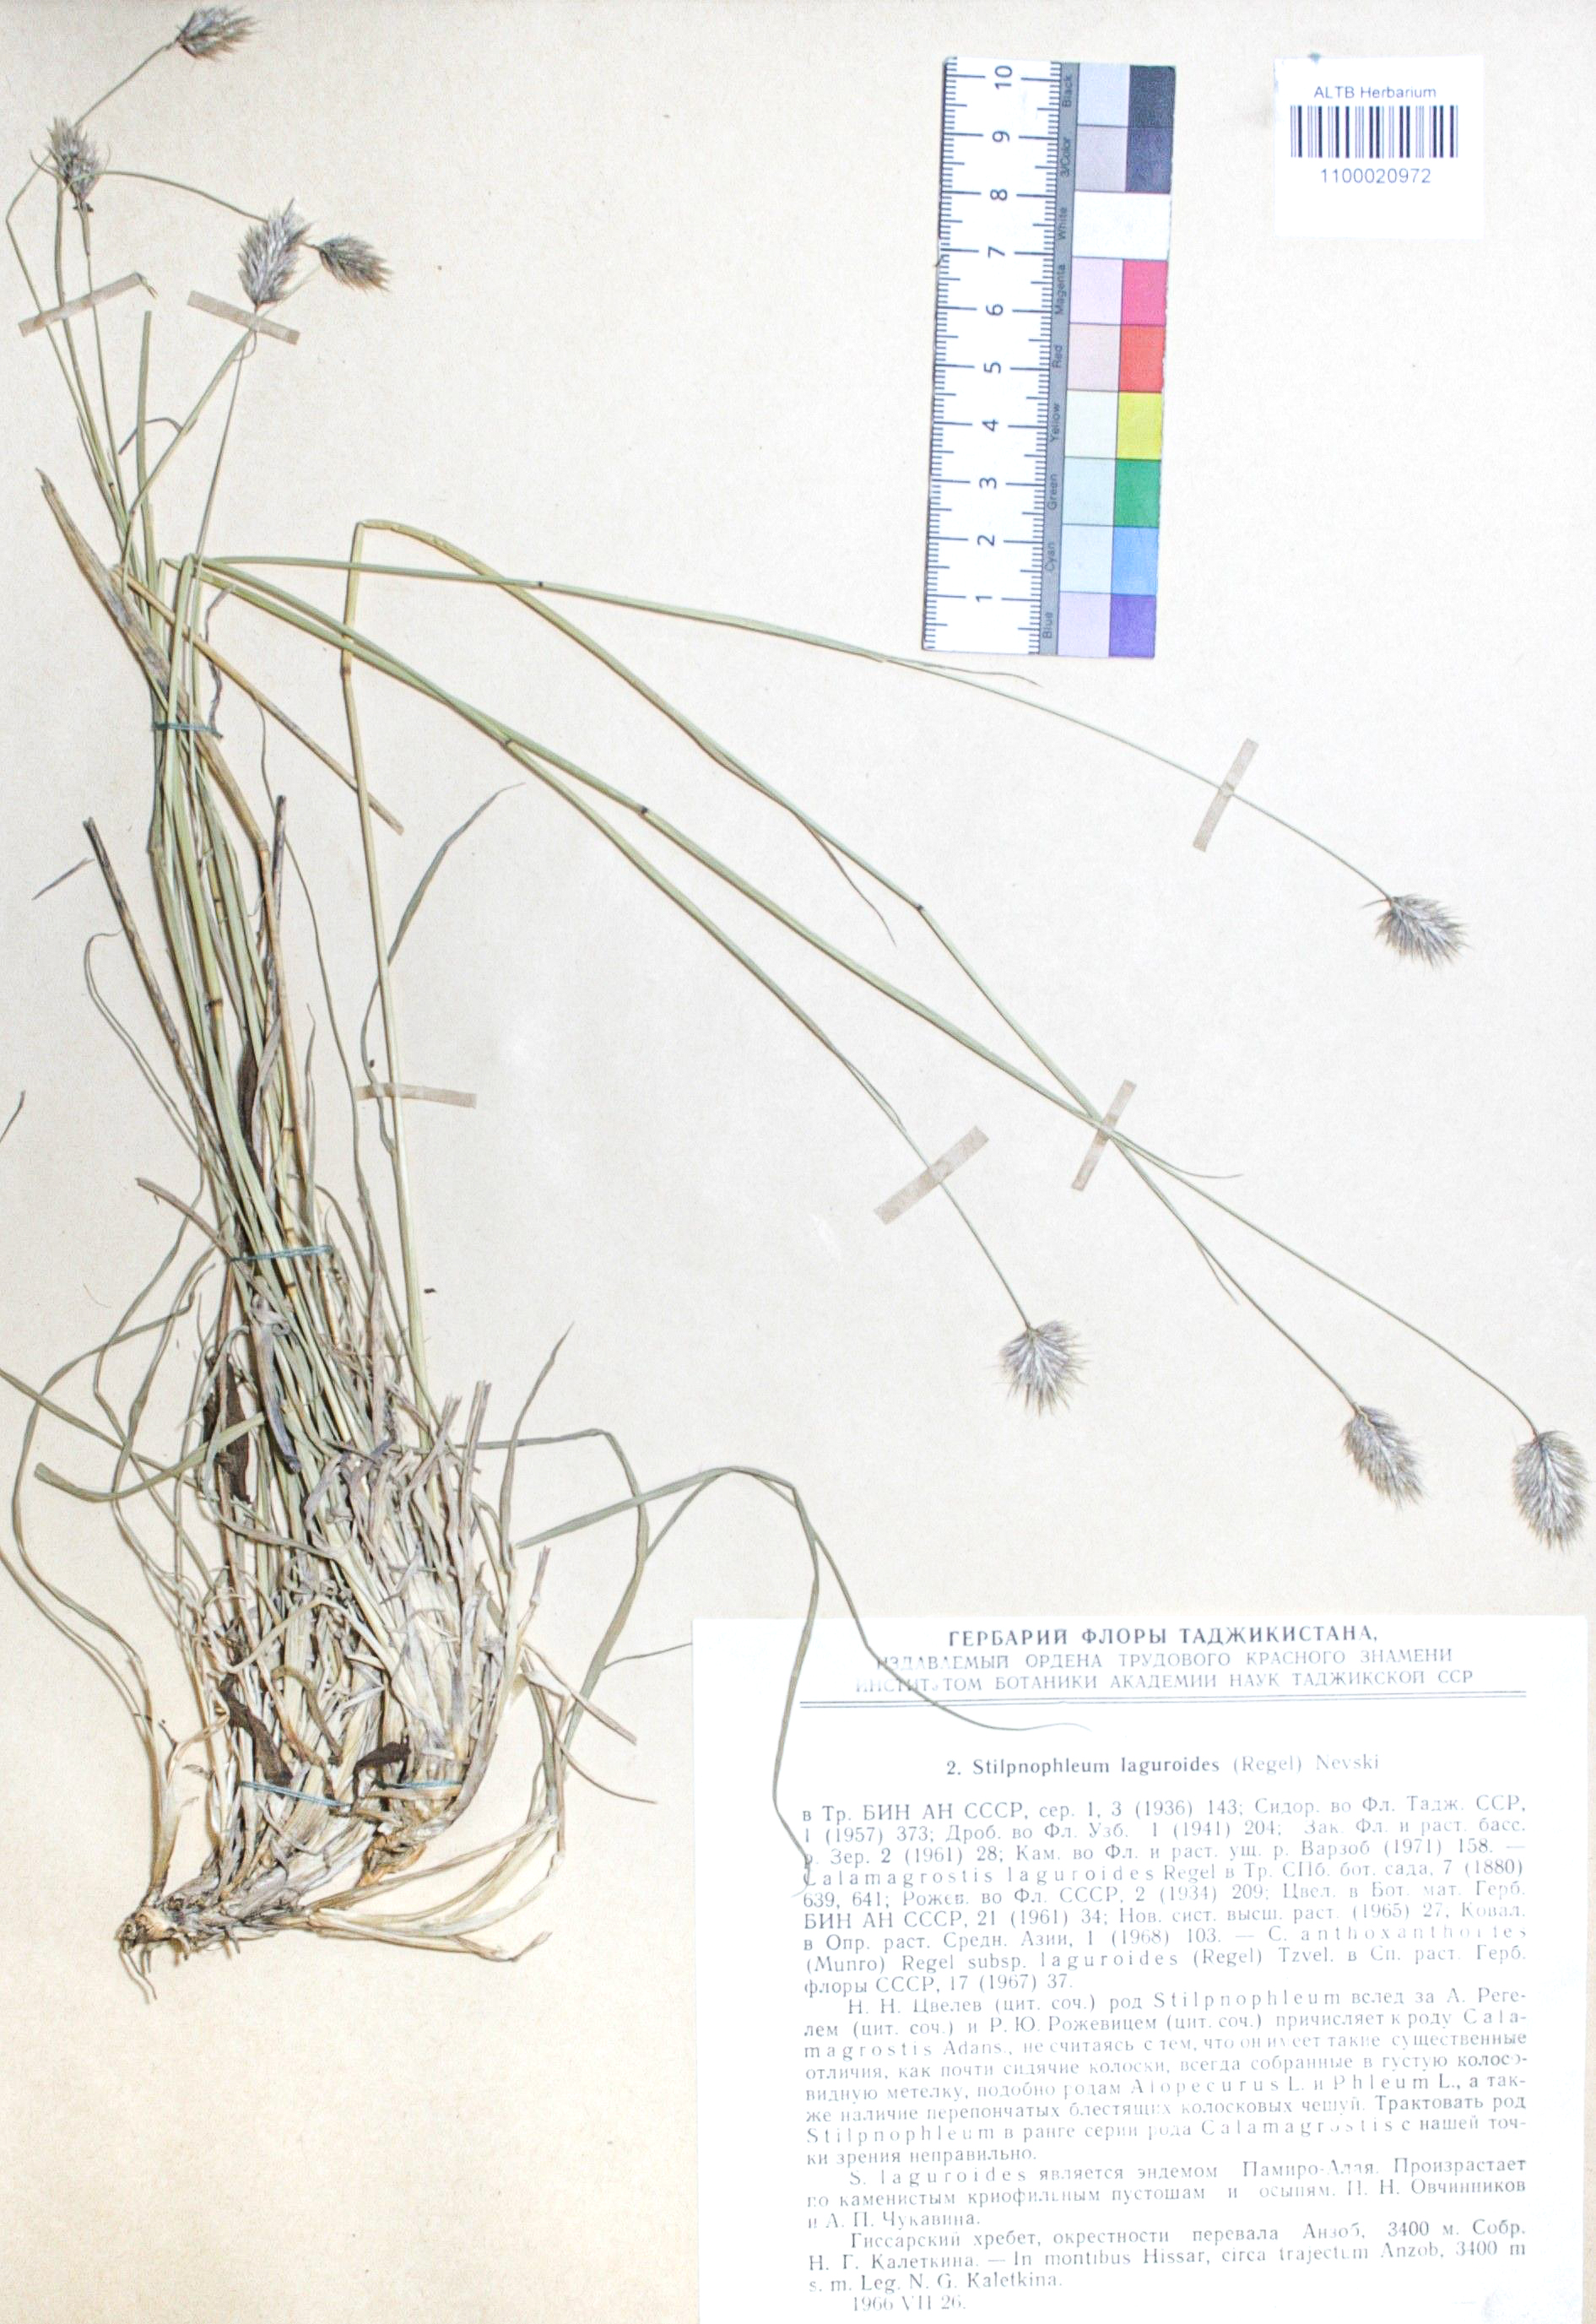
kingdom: Plantae
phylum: Tracheophyta
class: Liliopsida
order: Poales
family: Poaceae
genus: Calamagrostis
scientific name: Calamagrostis anthoxanthoides
